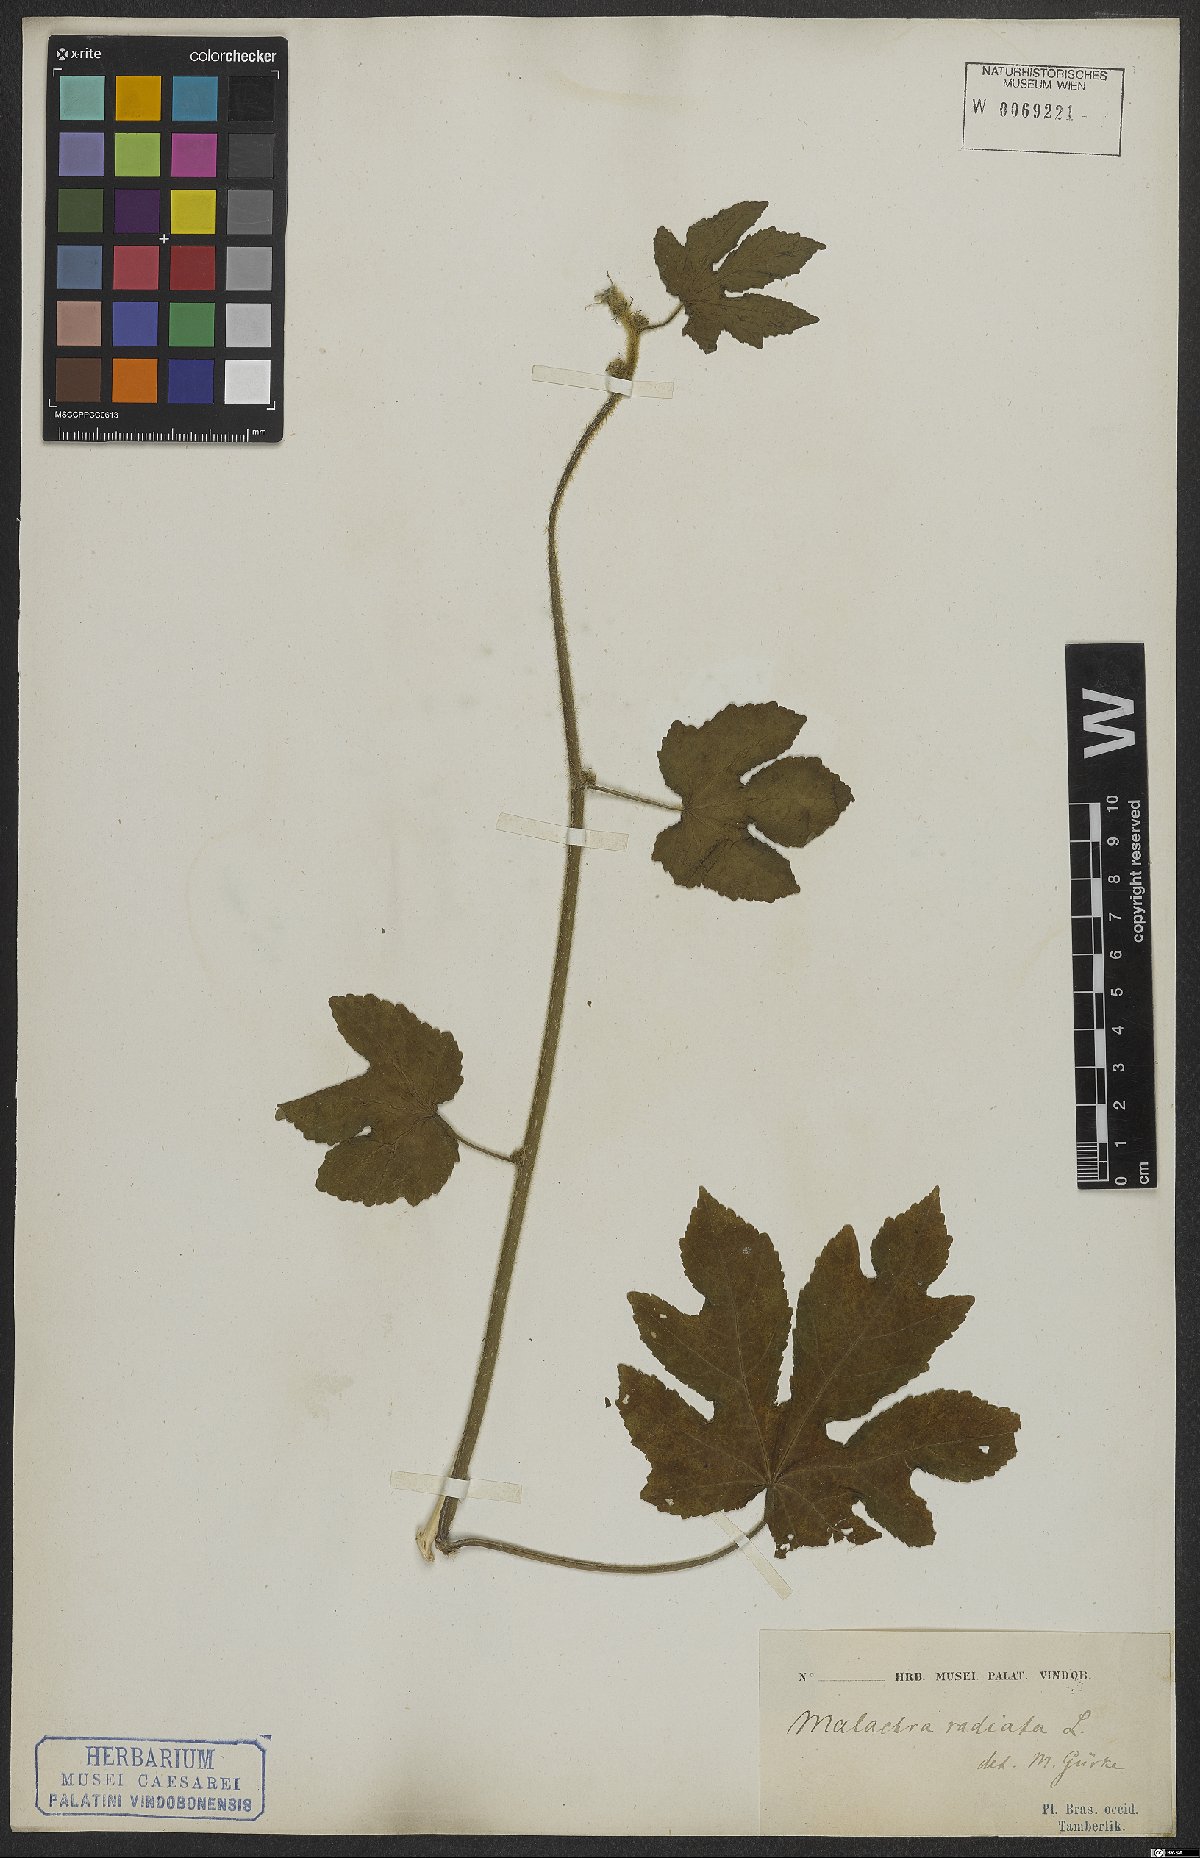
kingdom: Plantae
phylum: Tracheophyta
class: Magnoliopsida
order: Malvales
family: Malvaceae
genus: Malachra
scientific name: Malachra radiata
